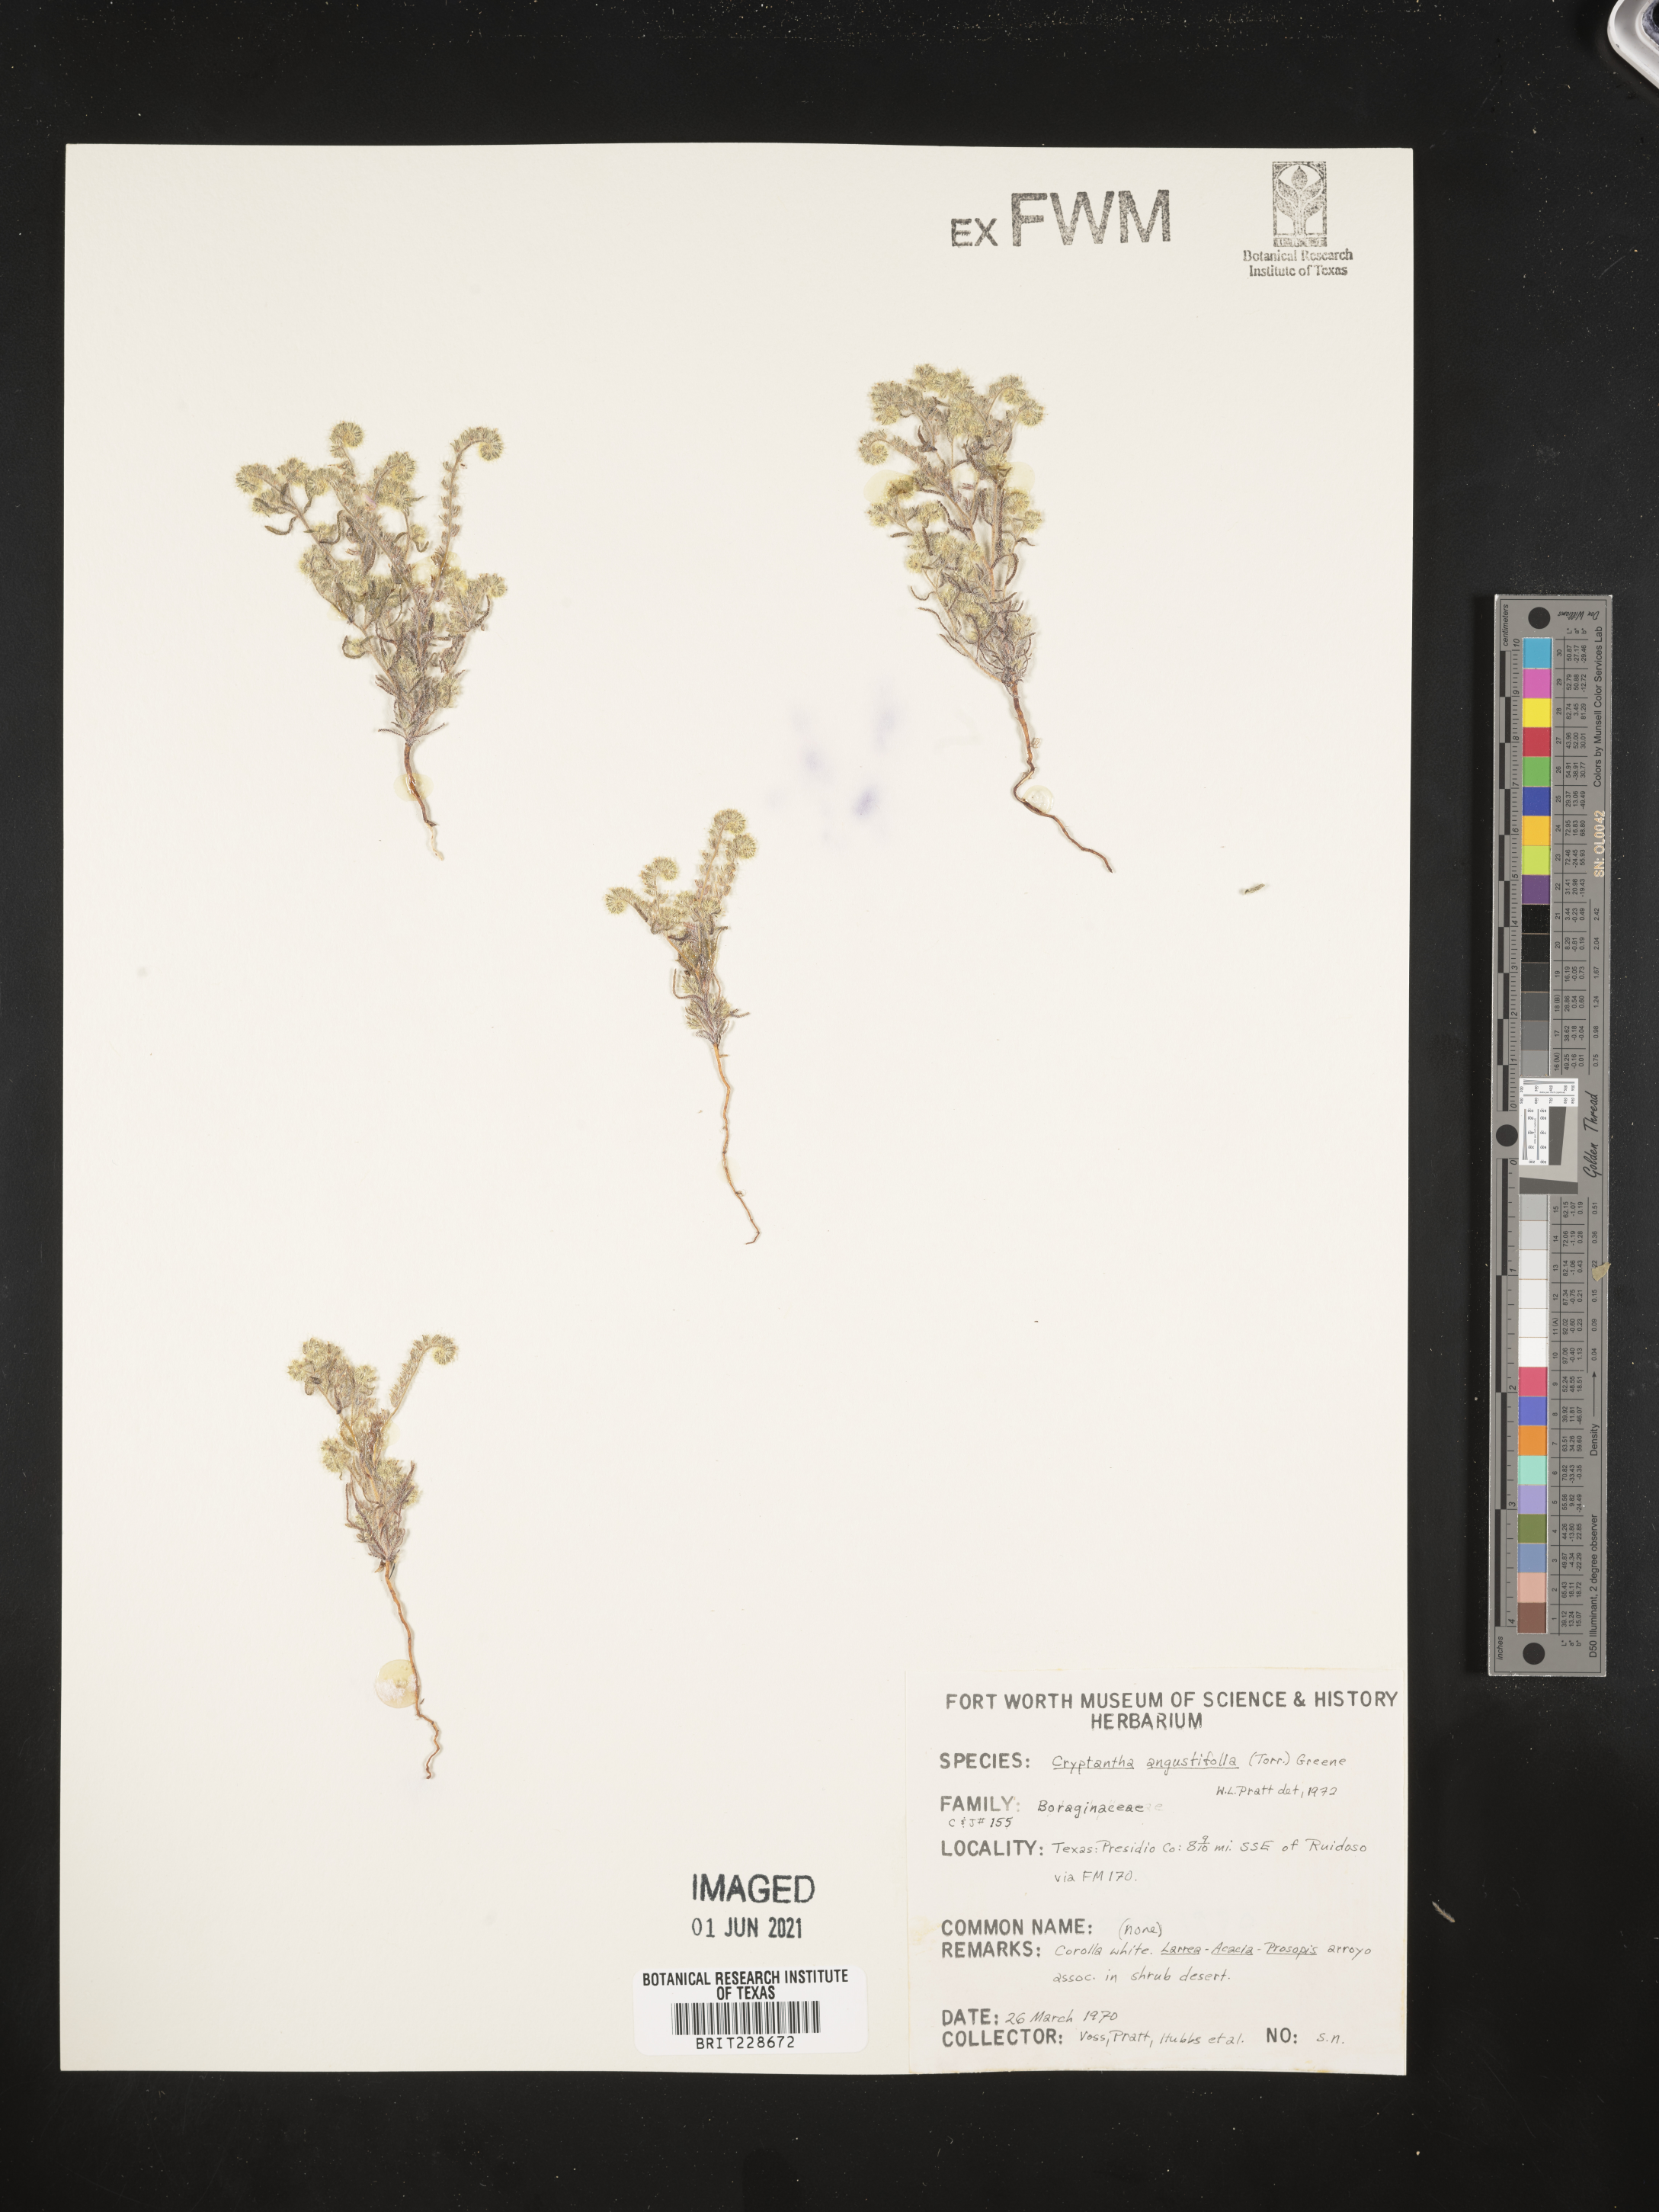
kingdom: Plantae
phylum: Tracheophyta
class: Magnoliopsida
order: Boraginales
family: Boraginaceae
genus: Johnstonella
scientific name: Johnstonella angustifolia
